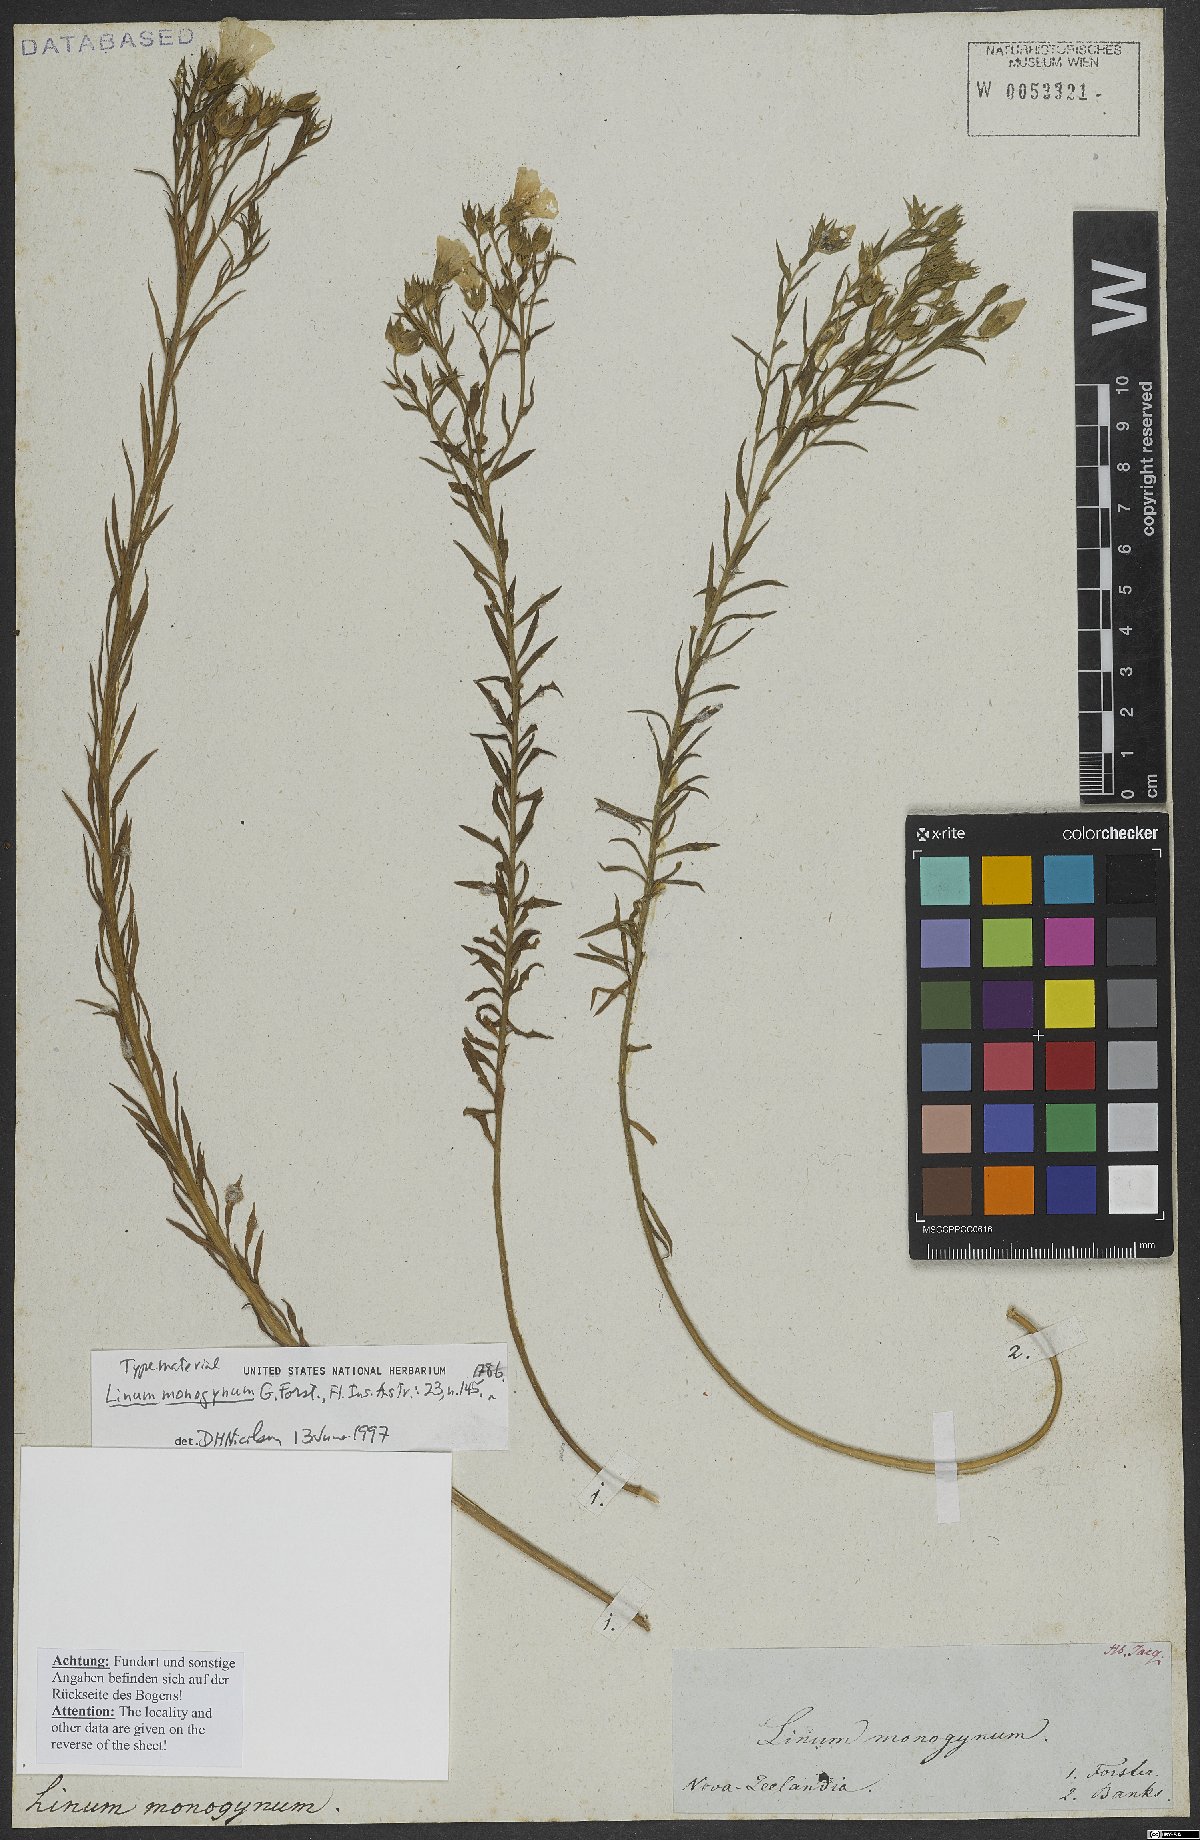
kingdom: Plantae
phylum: Tracheophyta
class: Magnoliopsida
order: Malpighiales
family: Linaceae
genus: Linum
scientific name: Linum monogynum
